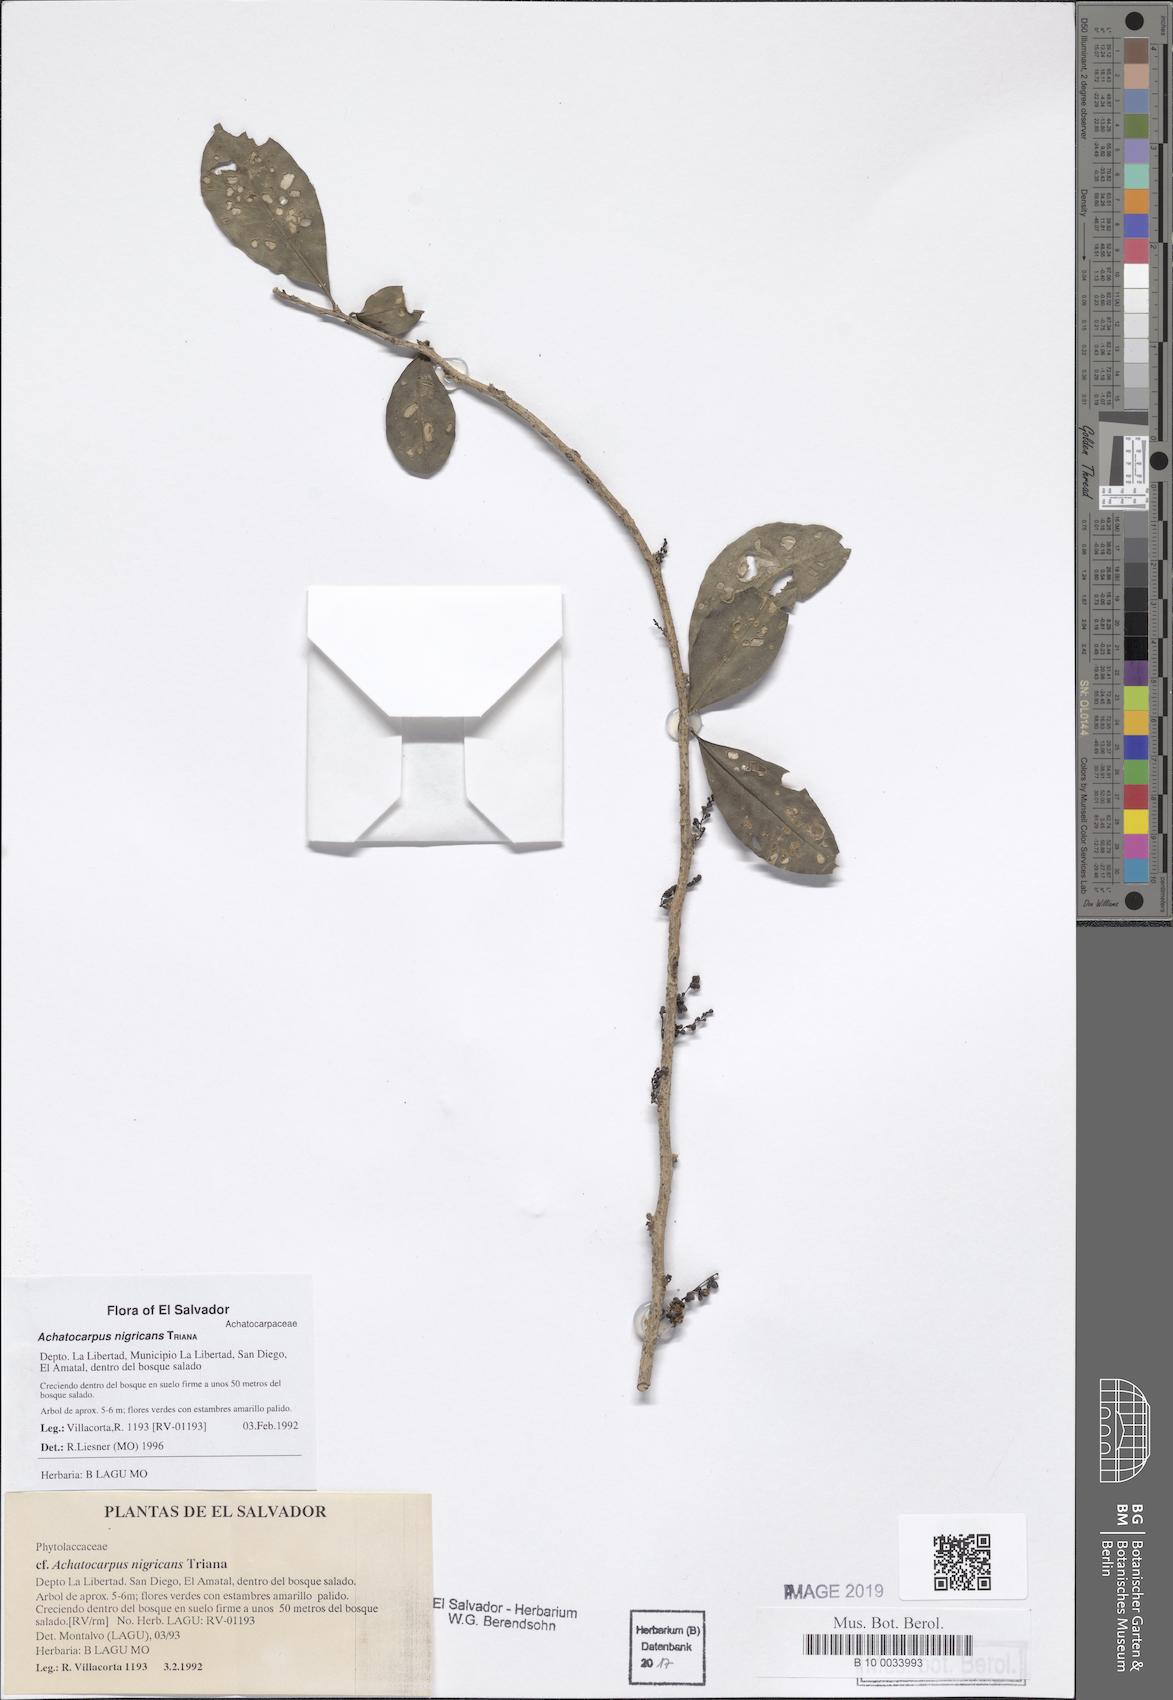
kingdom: Plantae
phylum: Tracheophyta
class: Magnoliopsida
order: Caryophyllales
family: Achatocarpaceae
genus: Achatocarpus
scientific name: Achatocarpus nigricans
